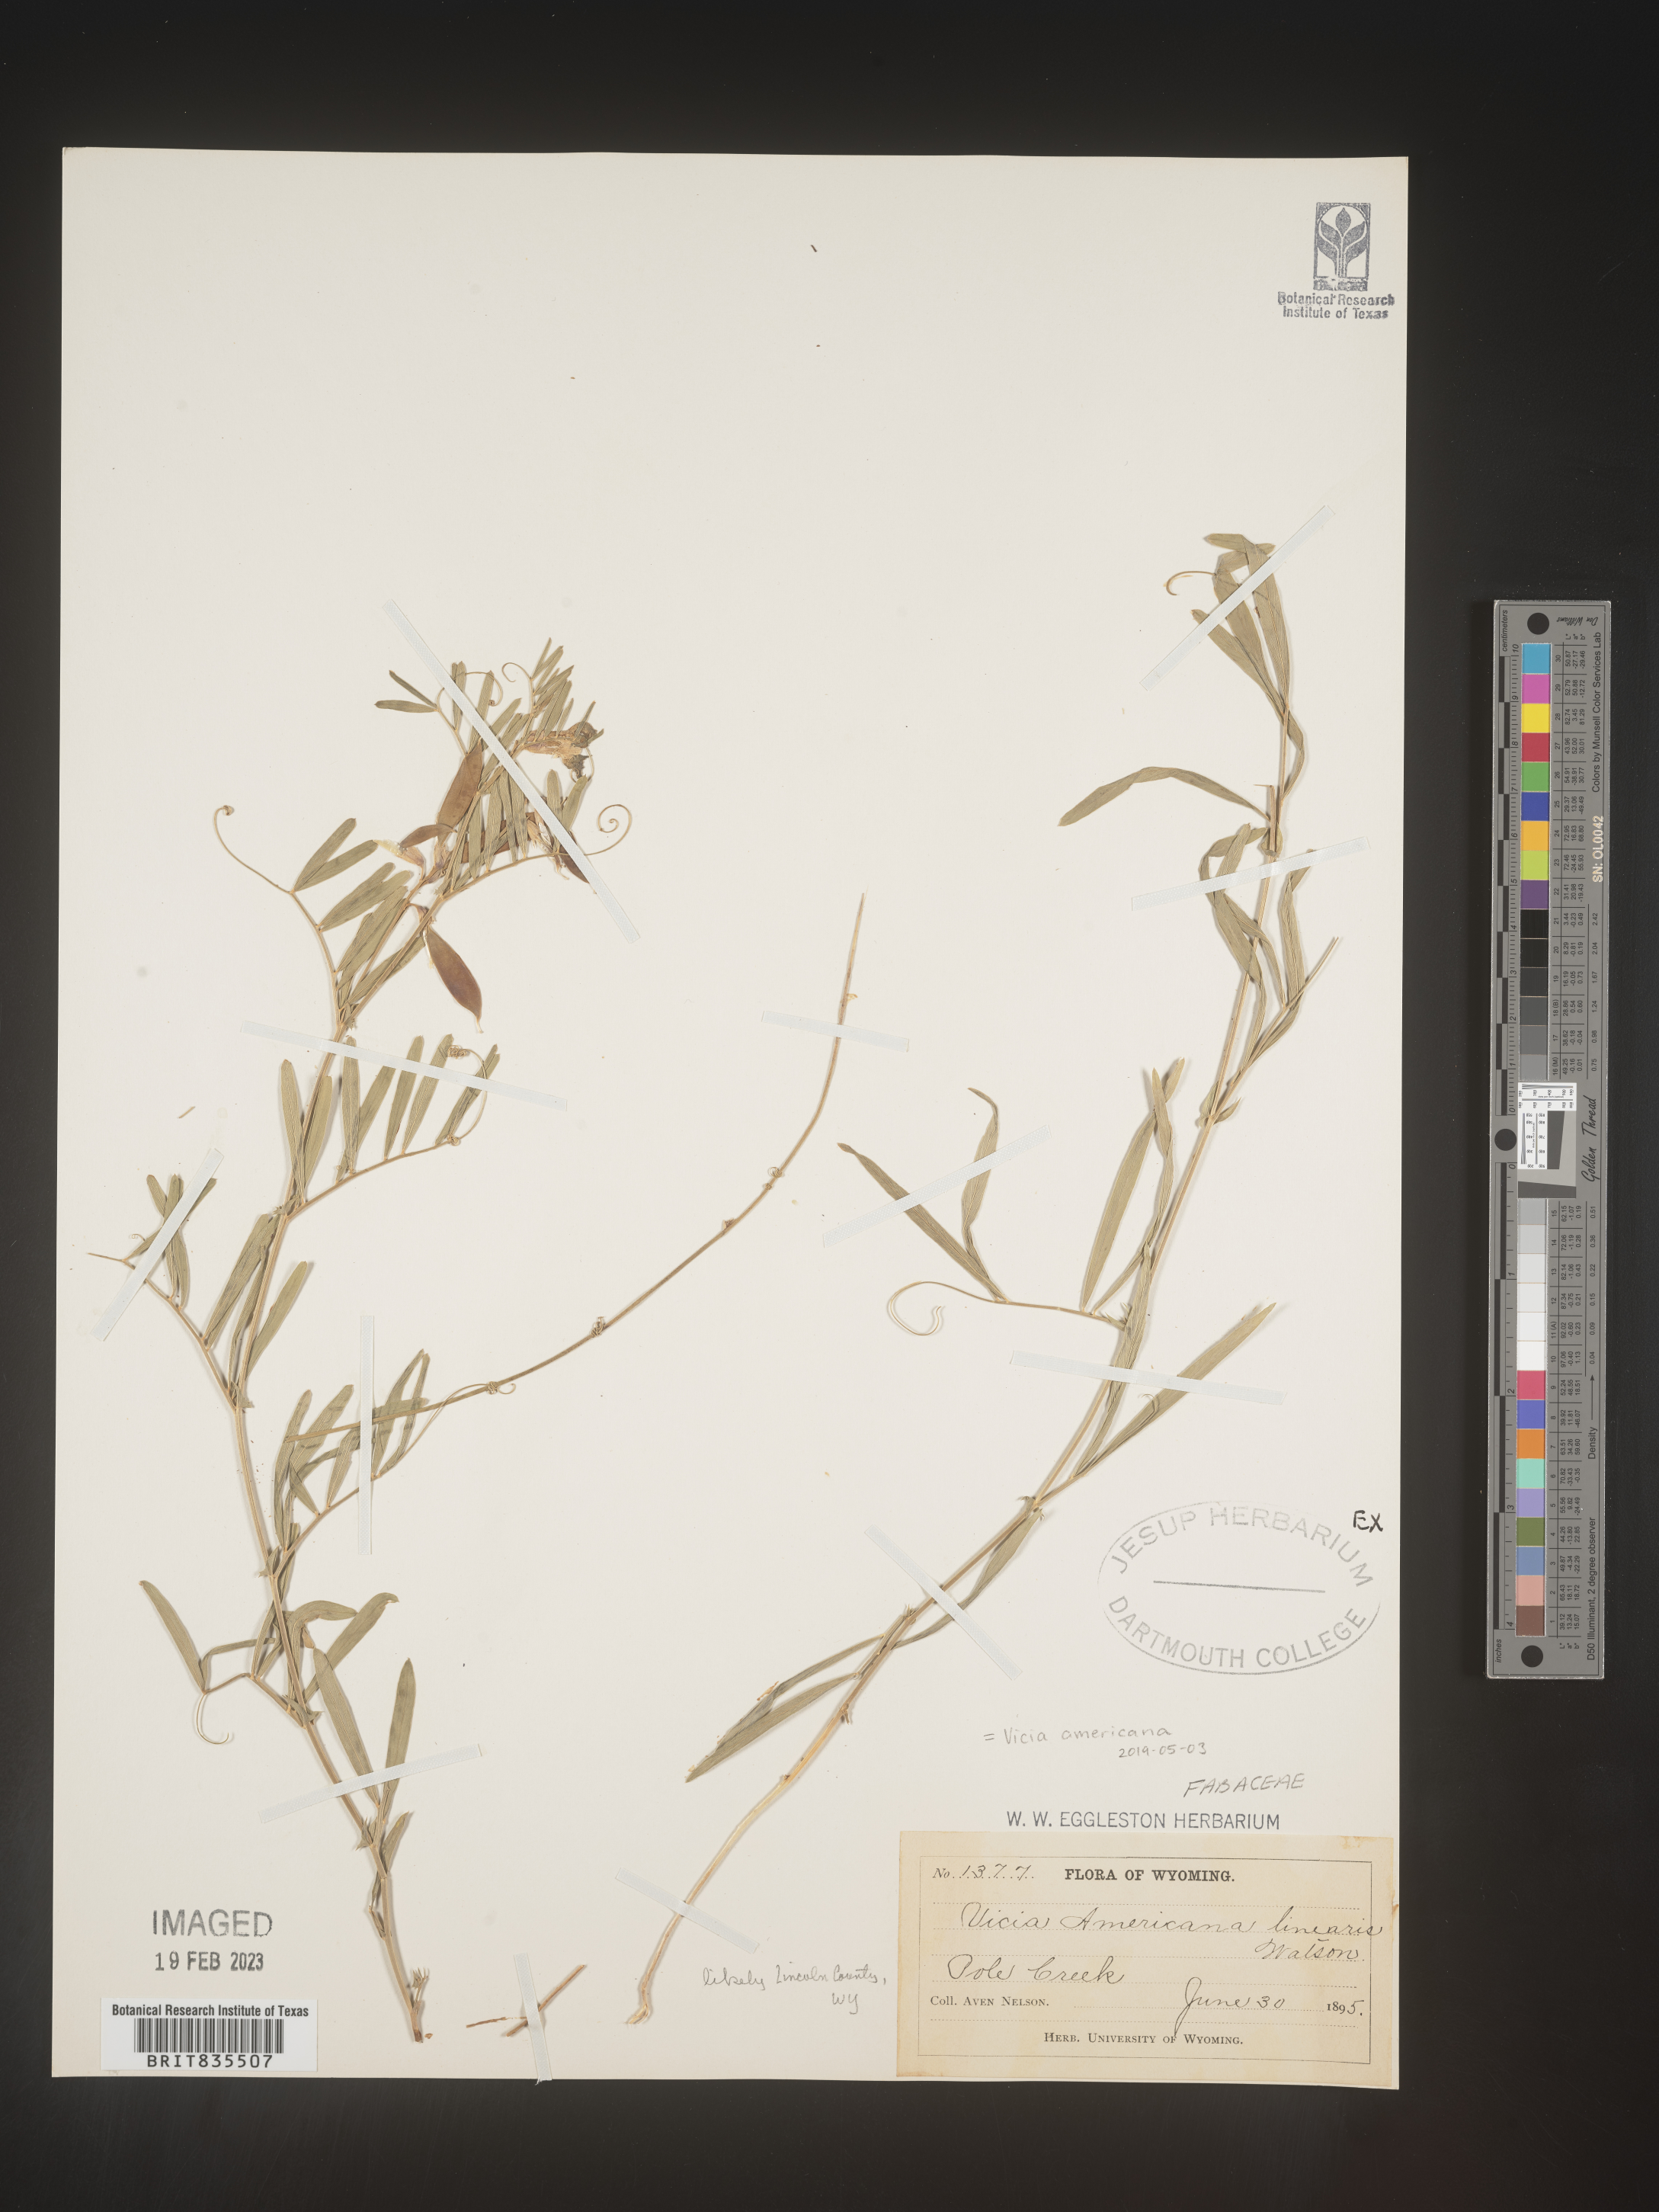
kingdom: Plantae
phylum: Tracheophyta
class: Magnoliopsida
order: Fabales
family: Fabaceae
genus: Vicia
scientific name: Vicia americana
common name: American vetch
